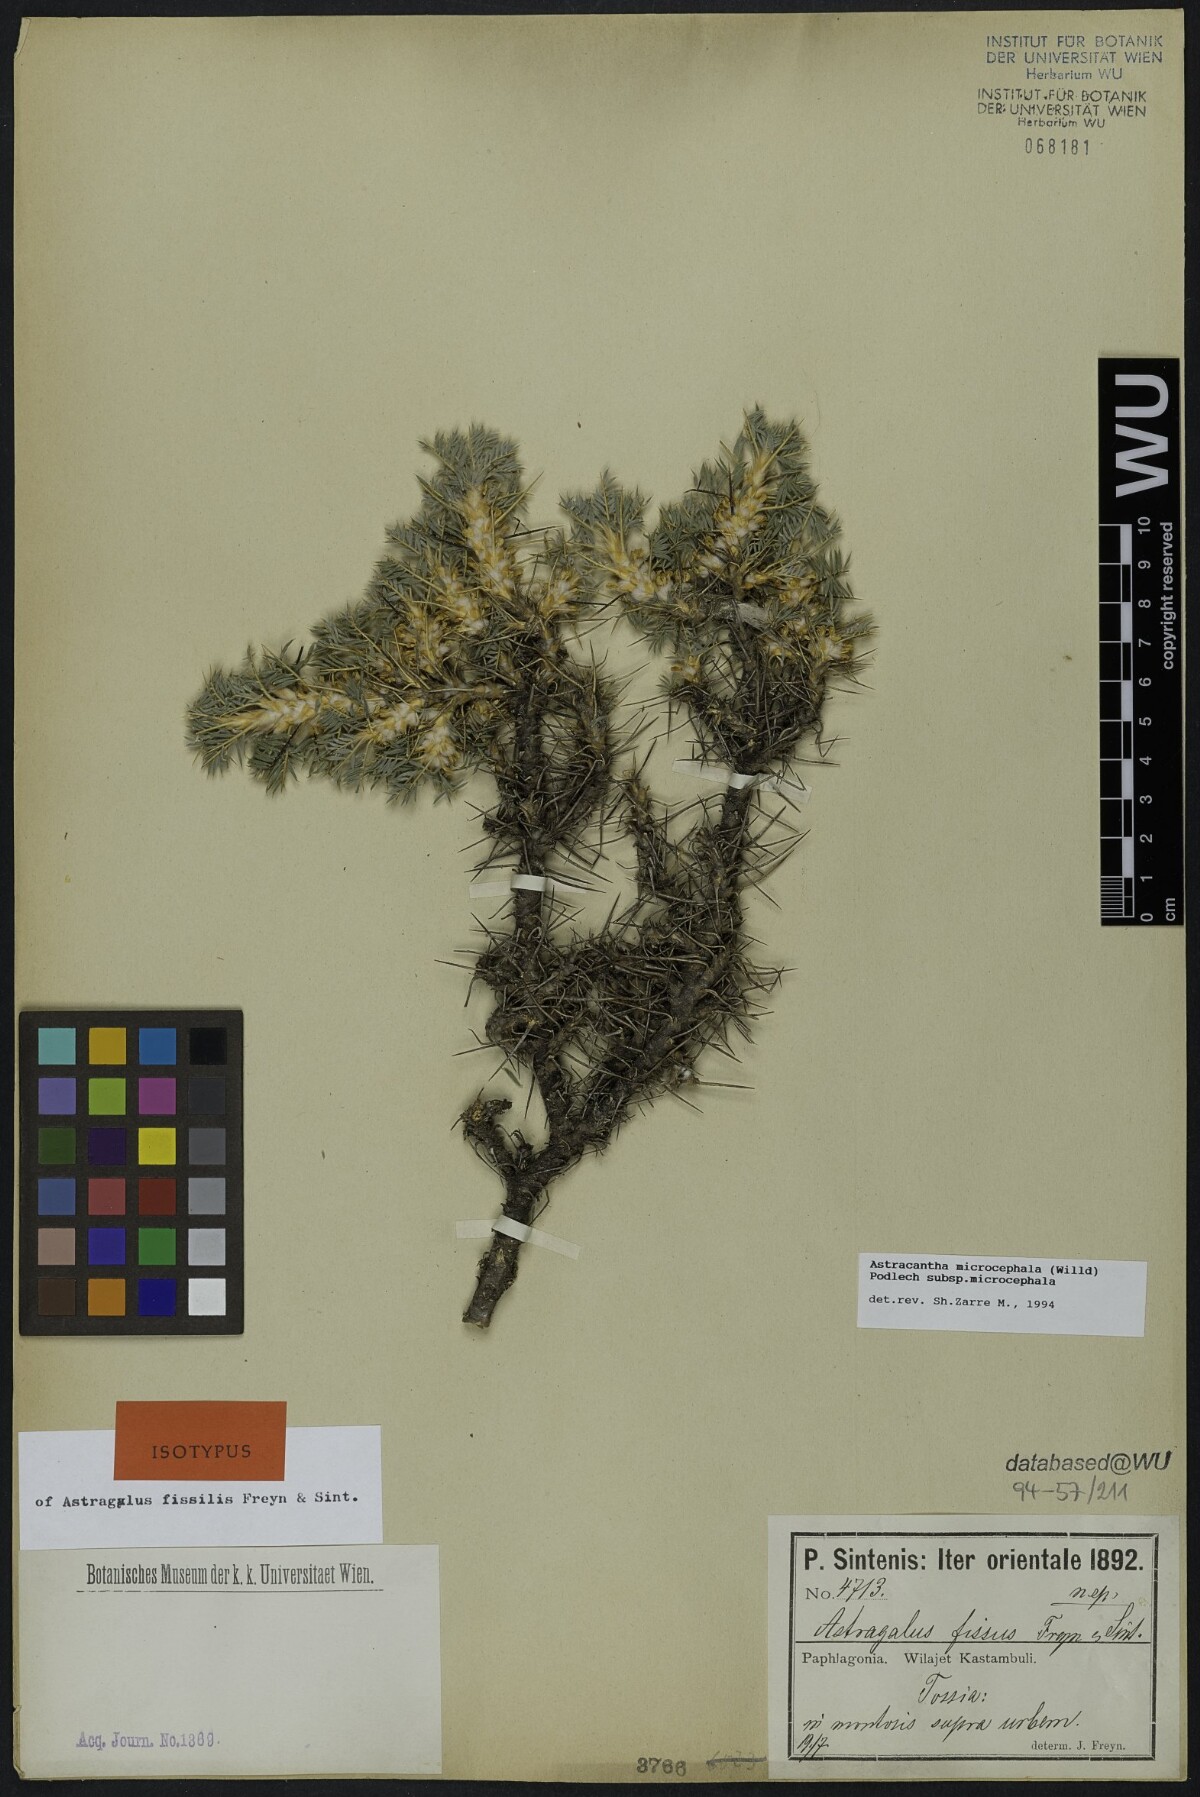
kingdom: Plantae
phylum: Tracheophyta
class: Magnoliopsida
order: Fabales
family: Fabaceae
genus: Astragalus
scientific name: Astragalus microcephalus
